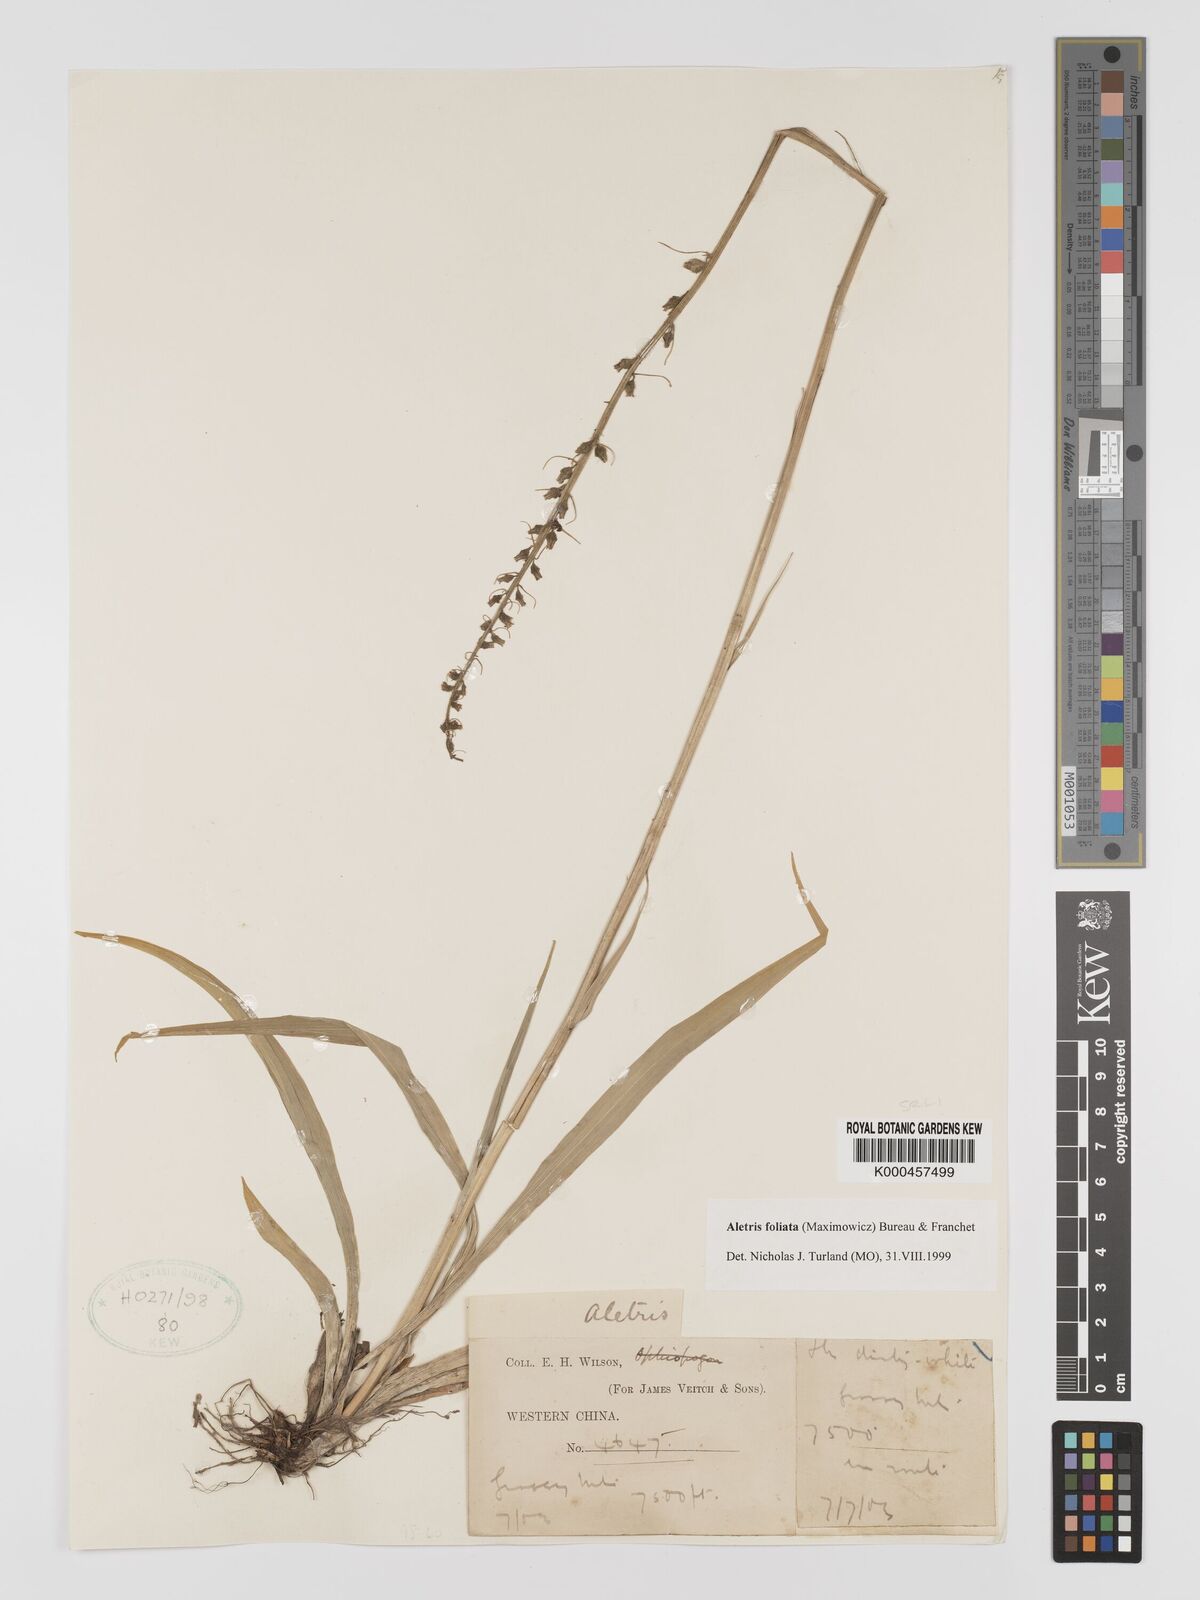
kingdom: Plantae
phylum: Tracheophyta
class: Liliopsida
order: Dioscoreales
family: Nartheciaceae
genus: Aletris
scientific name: Aletris
